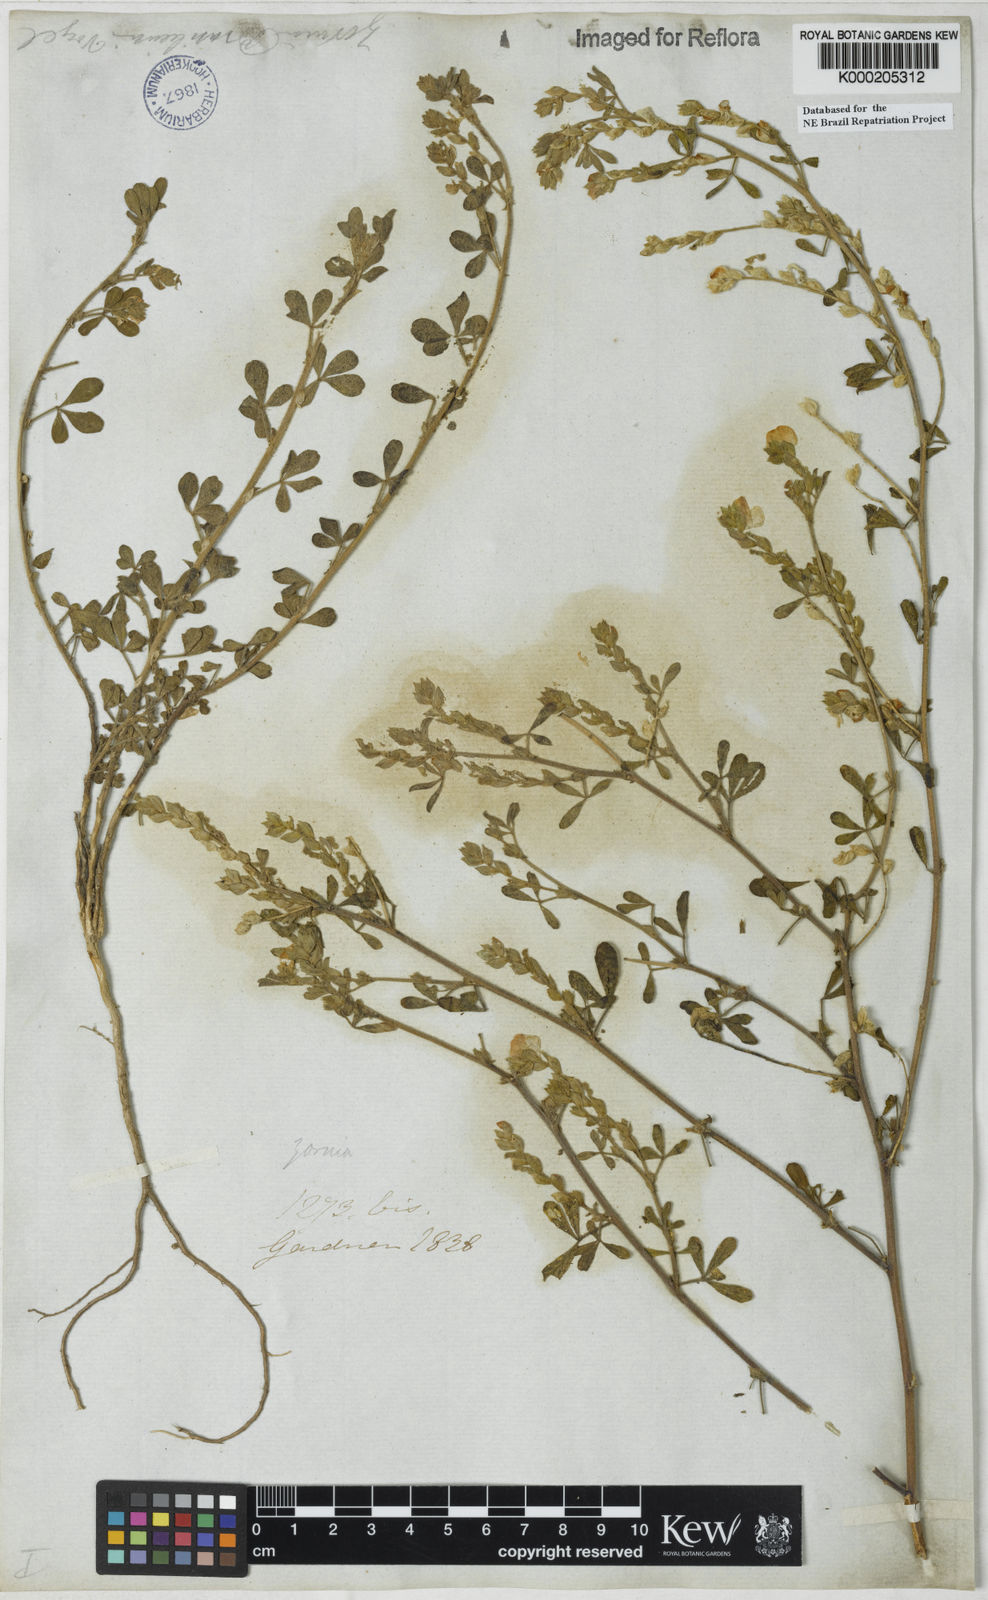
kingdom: Plantae
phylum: Tracheophyta
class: Magnoliopsida
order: Fabales
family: Fabaceae
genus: Zornia
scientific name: Zornia brasiliensis
